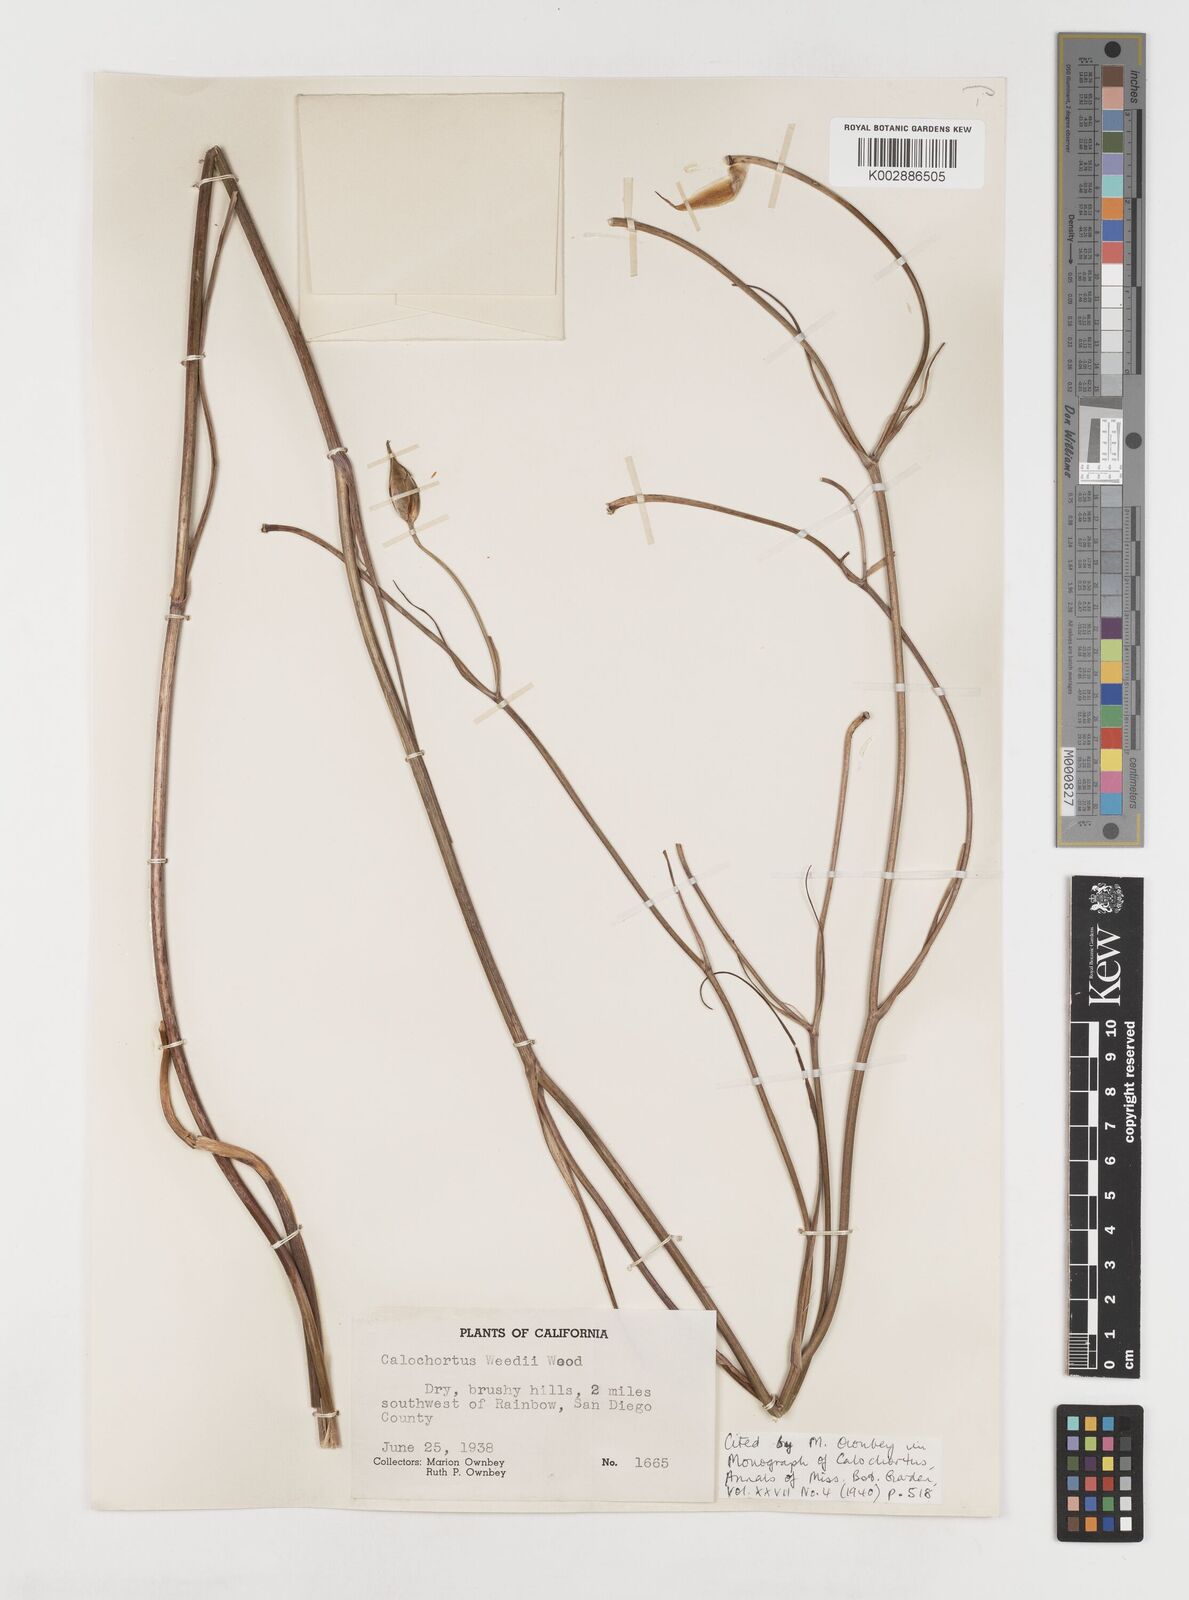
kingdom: Plantae
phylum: Tracheophyta
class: Liliopsida
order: Liliales
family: Liliaceae
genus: Calochortus
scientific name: Calochortus weedii
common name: Weed's mariposa-lily
